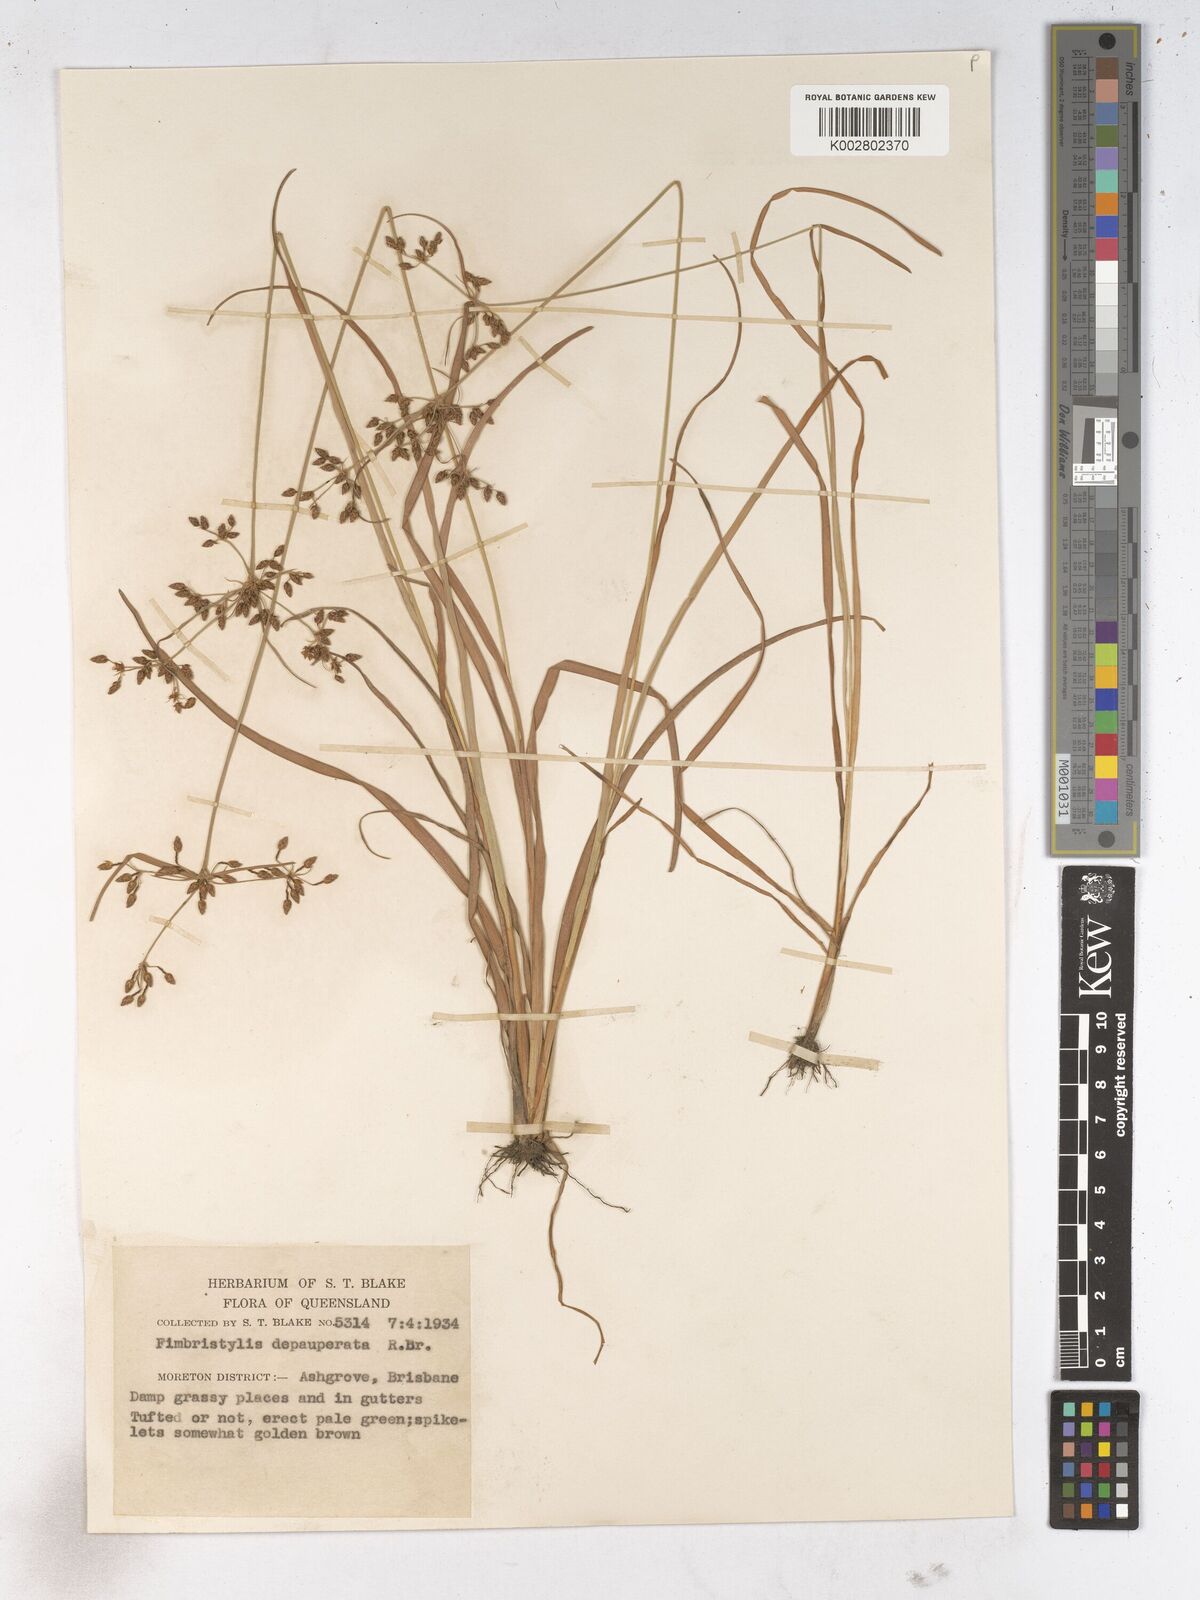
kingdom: Plantae
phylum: Tracheophyta
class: Liliopsida
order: Poales
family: Cyperaceae
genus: Fimbristylis
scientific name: Fimbristylis dichotoma
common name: Forked fimbry
